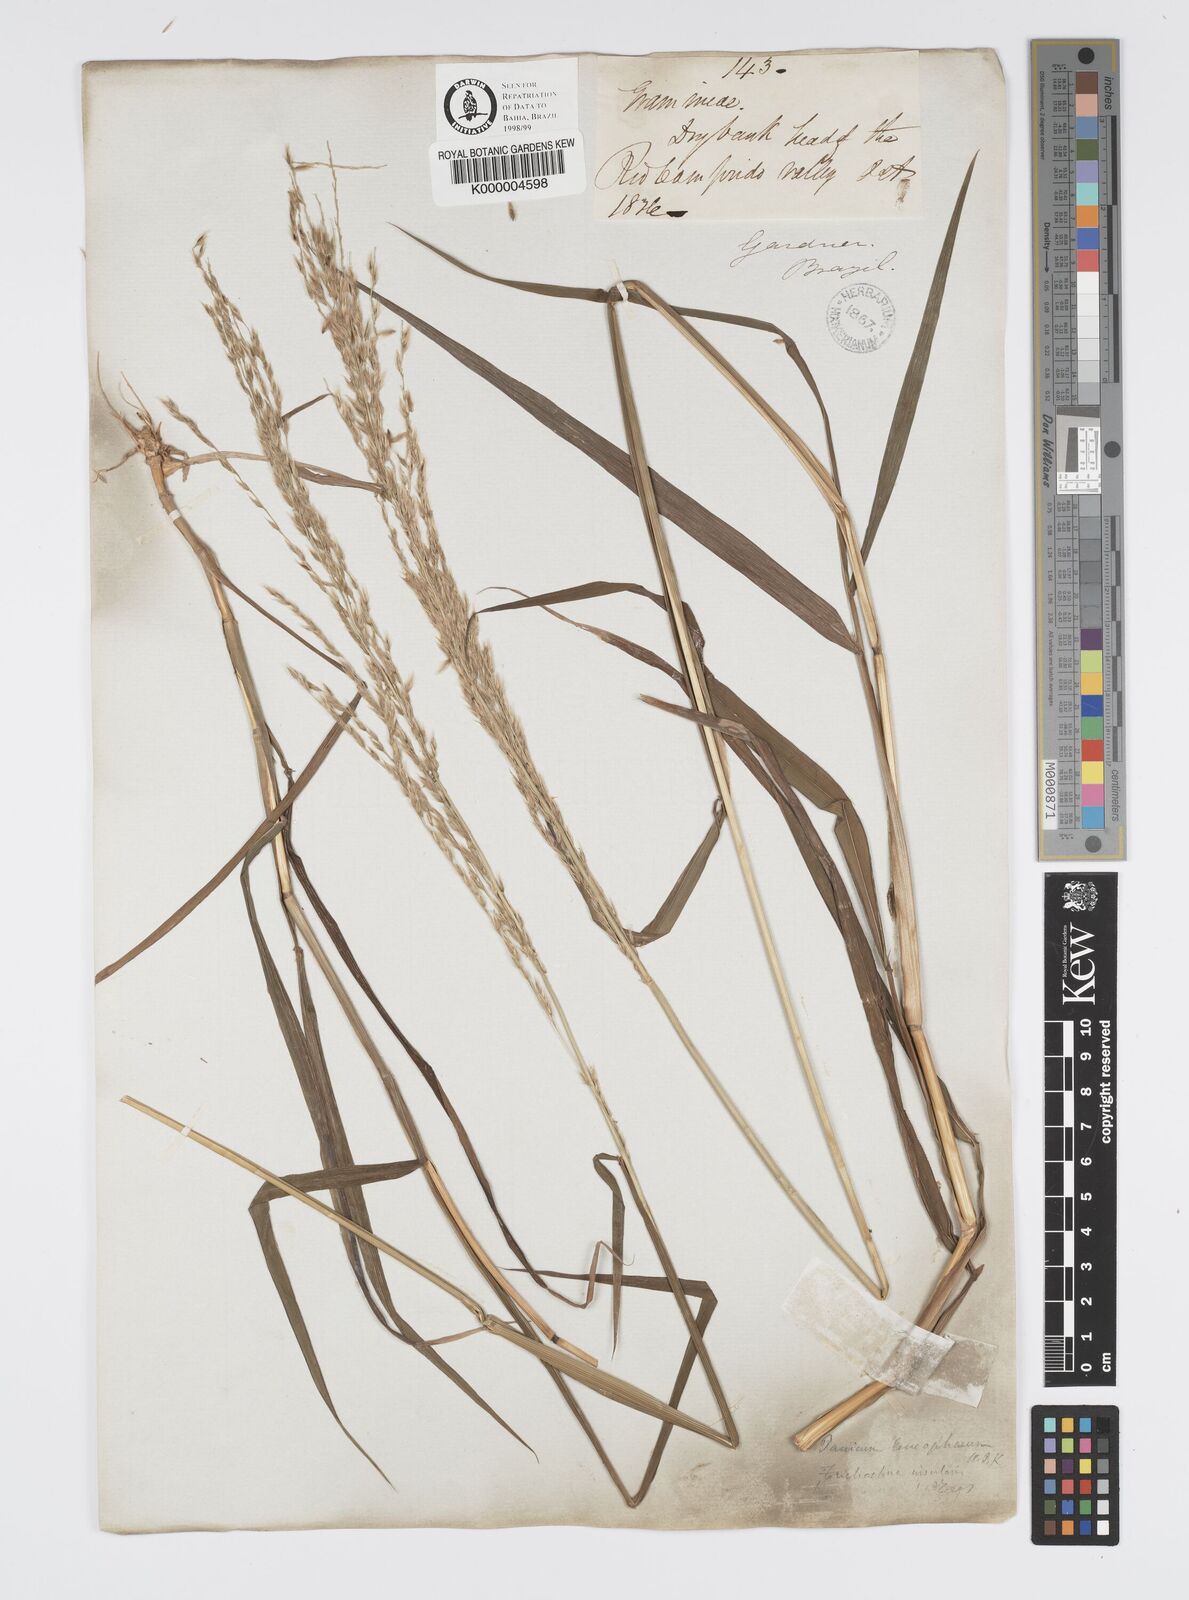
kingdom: Plantae
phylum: Tracheophyta
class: Liliopsida
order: Poales
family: Poaceae
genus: Digitaria
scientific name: Digitaria
